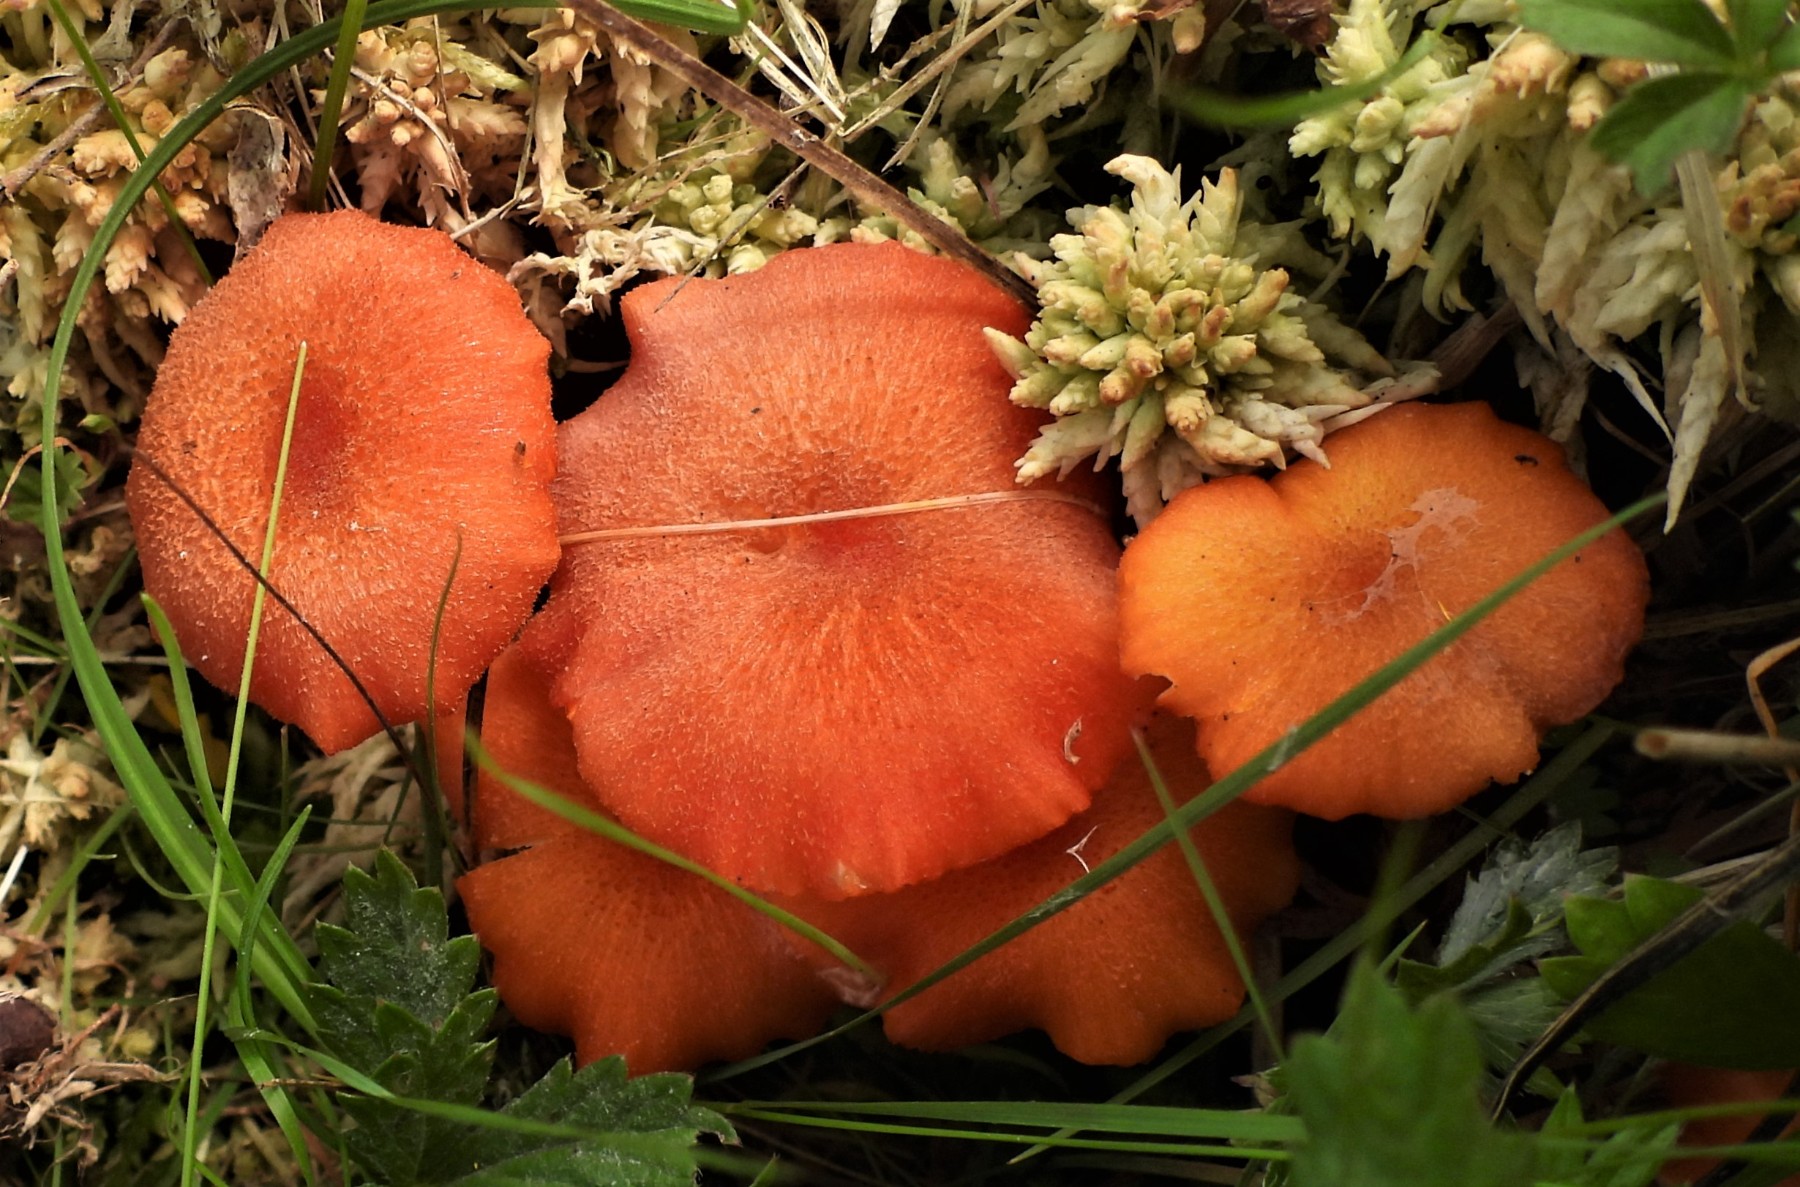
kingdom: Fungi
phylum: Basidiomycota
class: Agaricomycetes
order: Agaricales
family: Hygrophoraceae
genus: Hygrocybe
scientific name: Hygrocybe coccineocrenata
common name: tørvemos-vokshat
